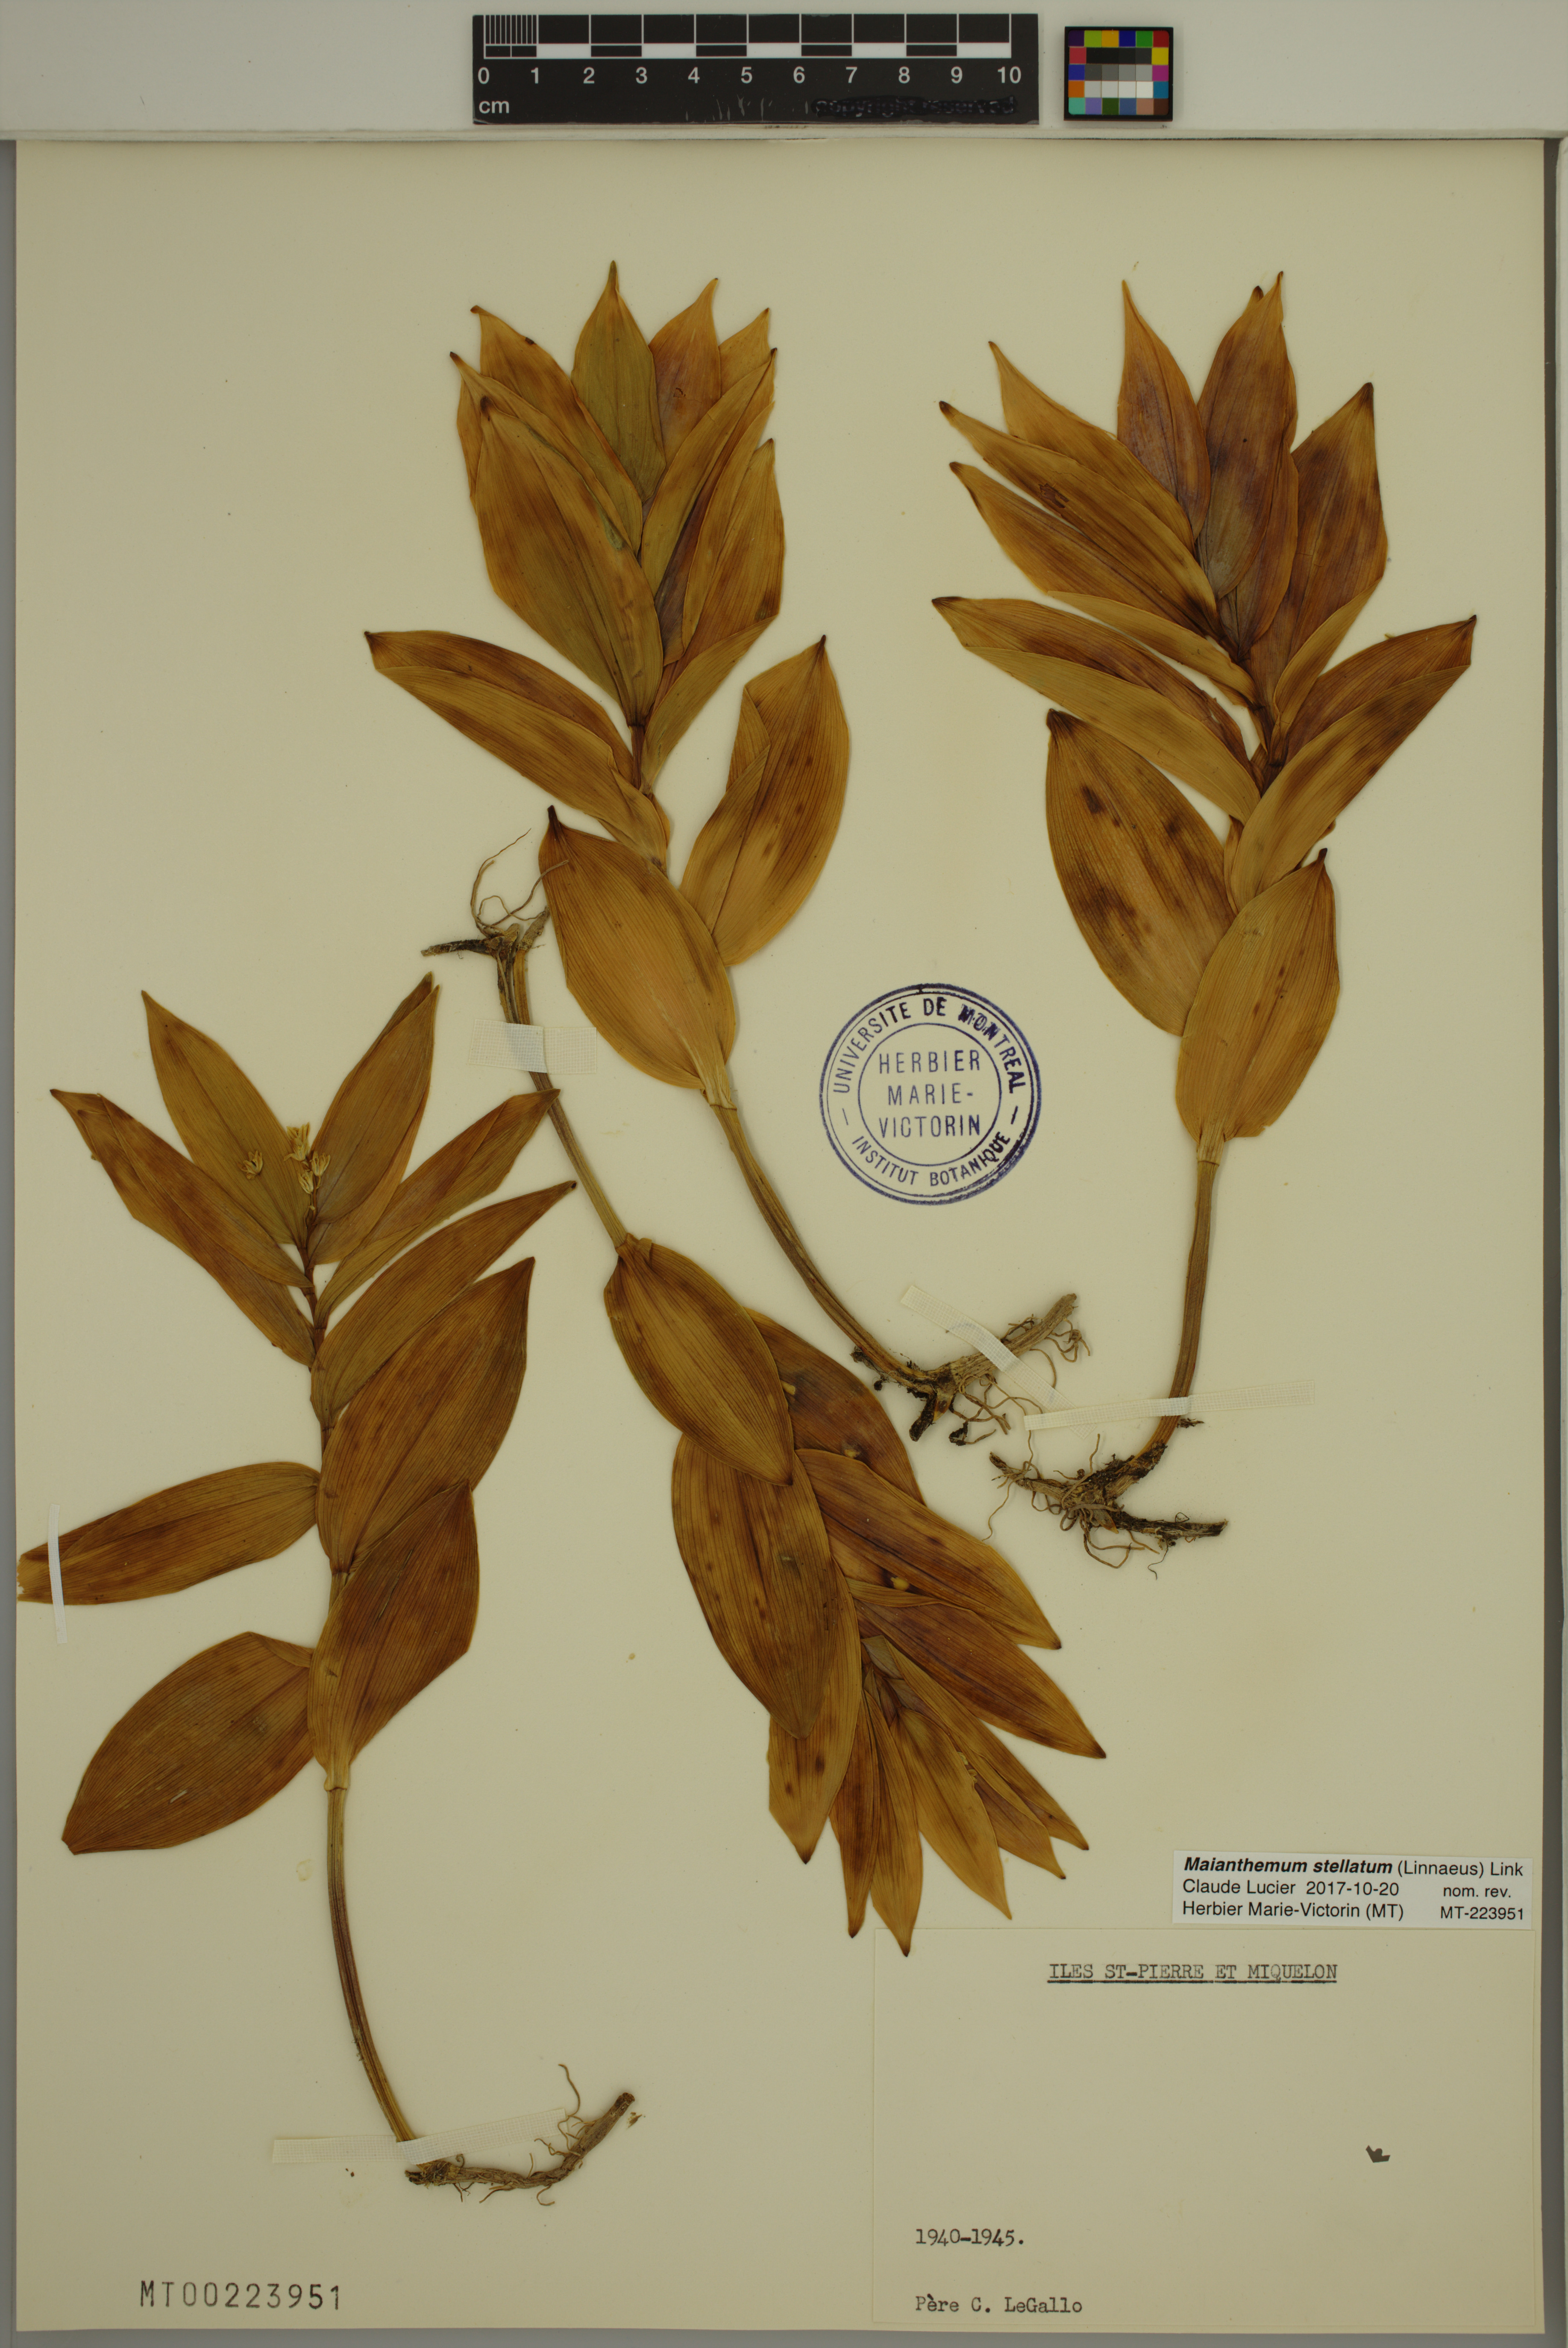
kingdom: Plantae
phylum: Tracheophyta
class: Liliopsida
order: Asparagales
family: Asparagaceae
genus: Maianthemum
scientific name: Maianthemum stellatum
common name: Little false solomon's seal
